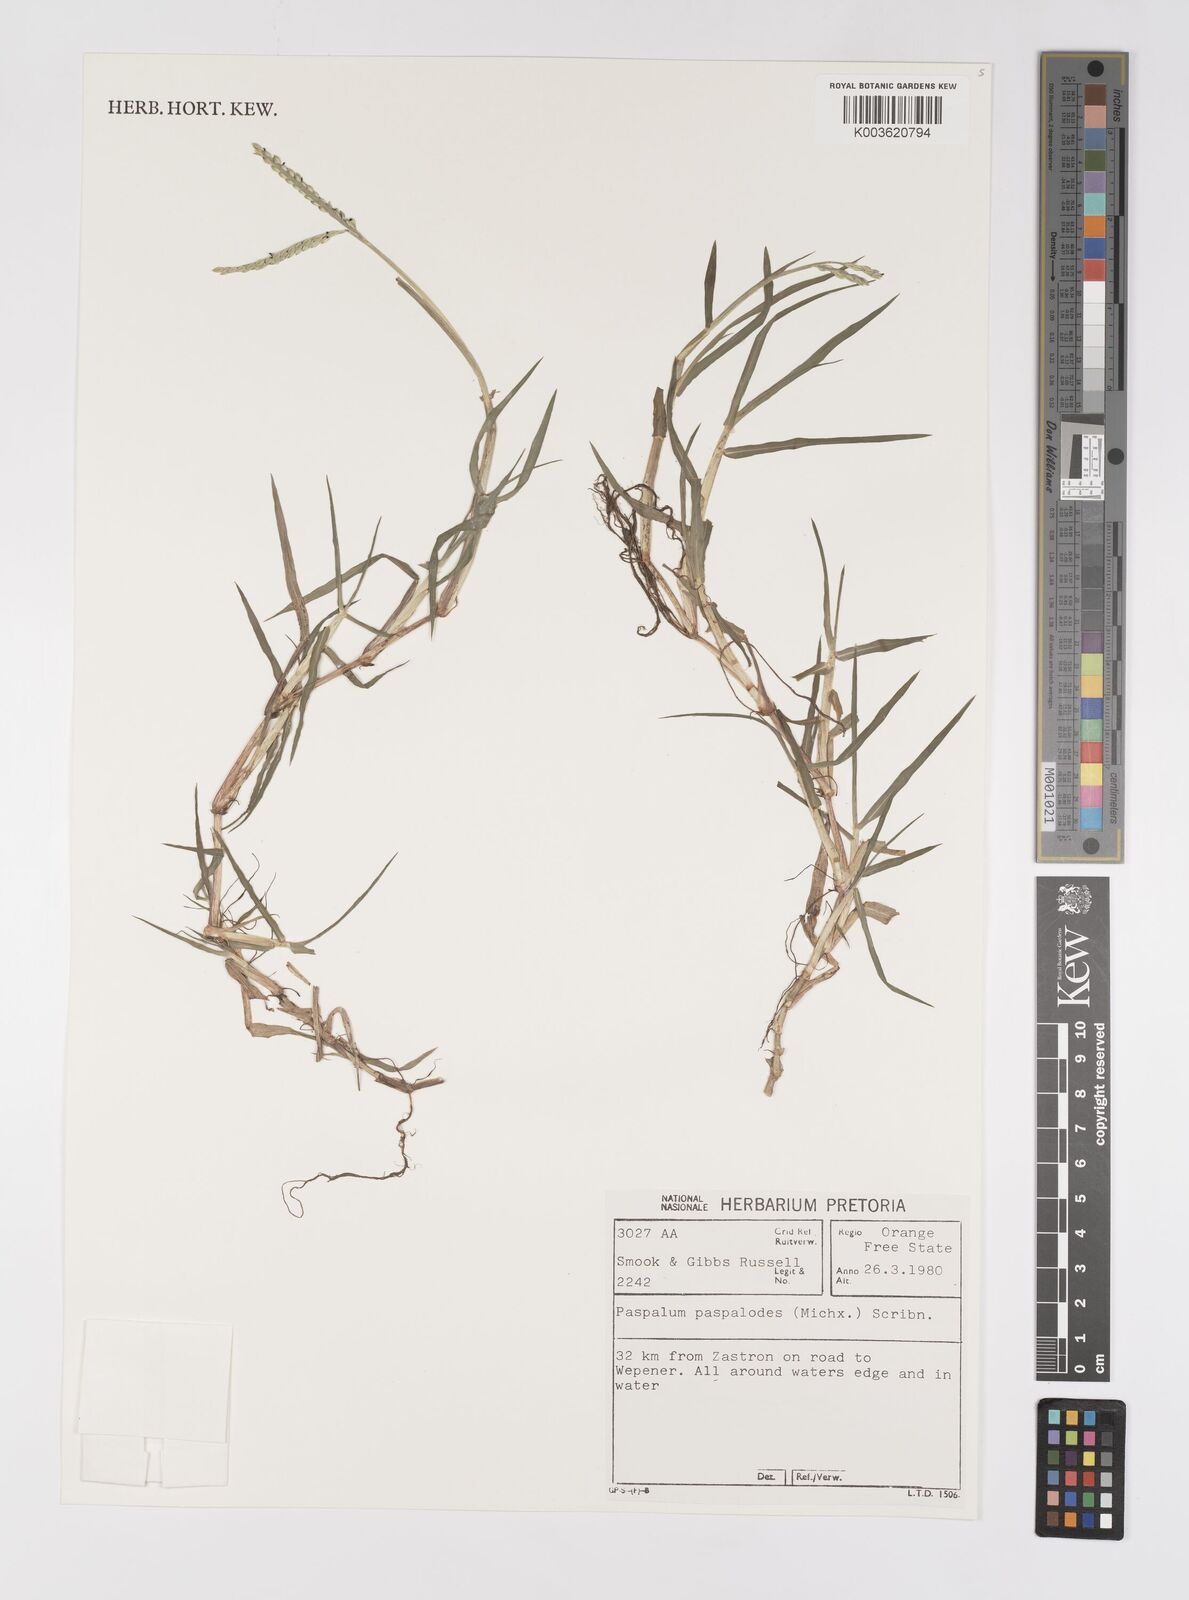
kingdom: Plantae
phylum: Tracheophyta
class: Liliopsida
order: Poales
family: Poaceae
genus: Paspalum
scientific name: Paspalum distichum
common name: Knotgrass
